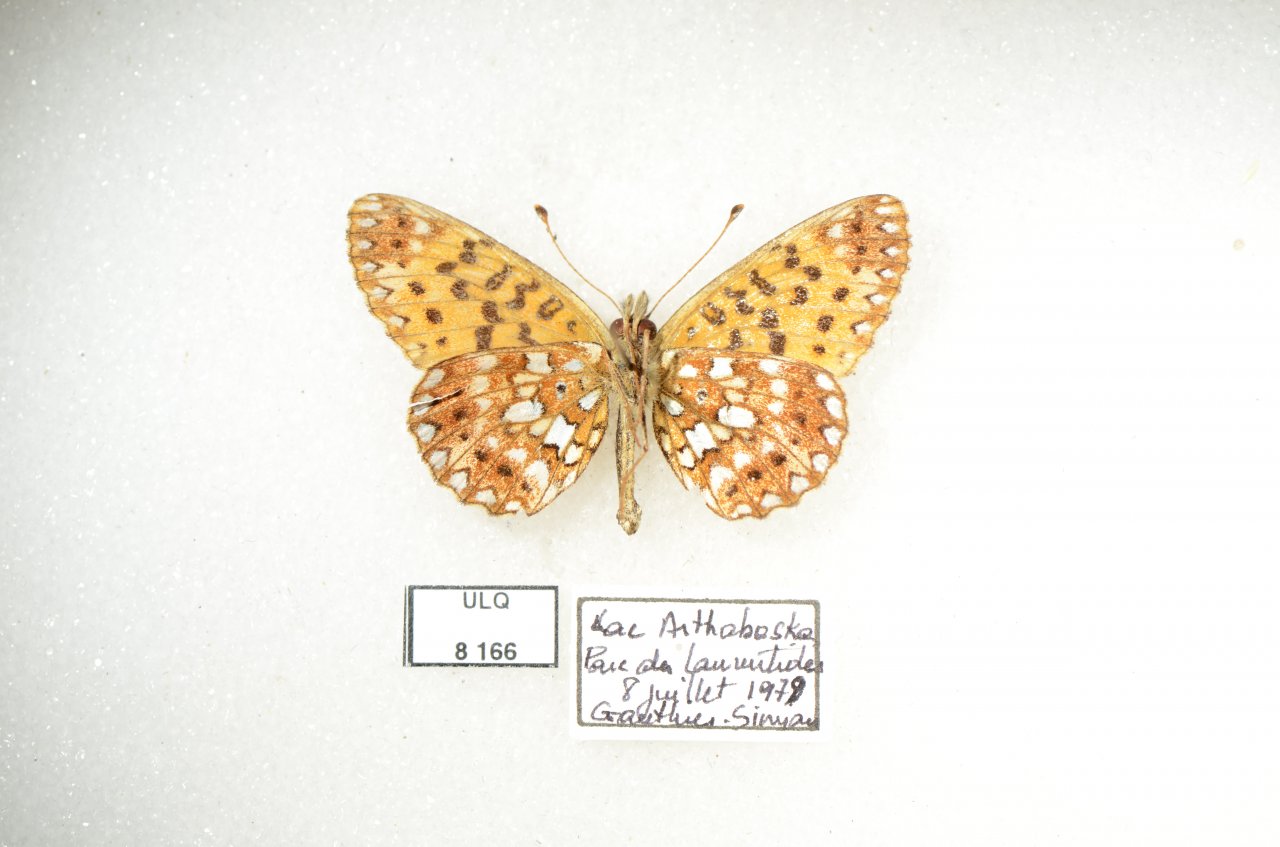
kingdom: Animalia
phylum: Arthropoda
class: Insecta
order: Lepidoptera
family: Nymphalidae
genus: Boloria
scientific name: Boloria selene
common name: Silver-bordered Fritillary
